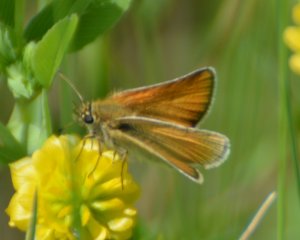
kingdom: Animalia
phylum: Arthropoda
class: Insecta
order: Lepidoptera
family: Hesperiidae
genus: Thymelicus
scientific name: Thymelicus lineola
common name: European Skipper
